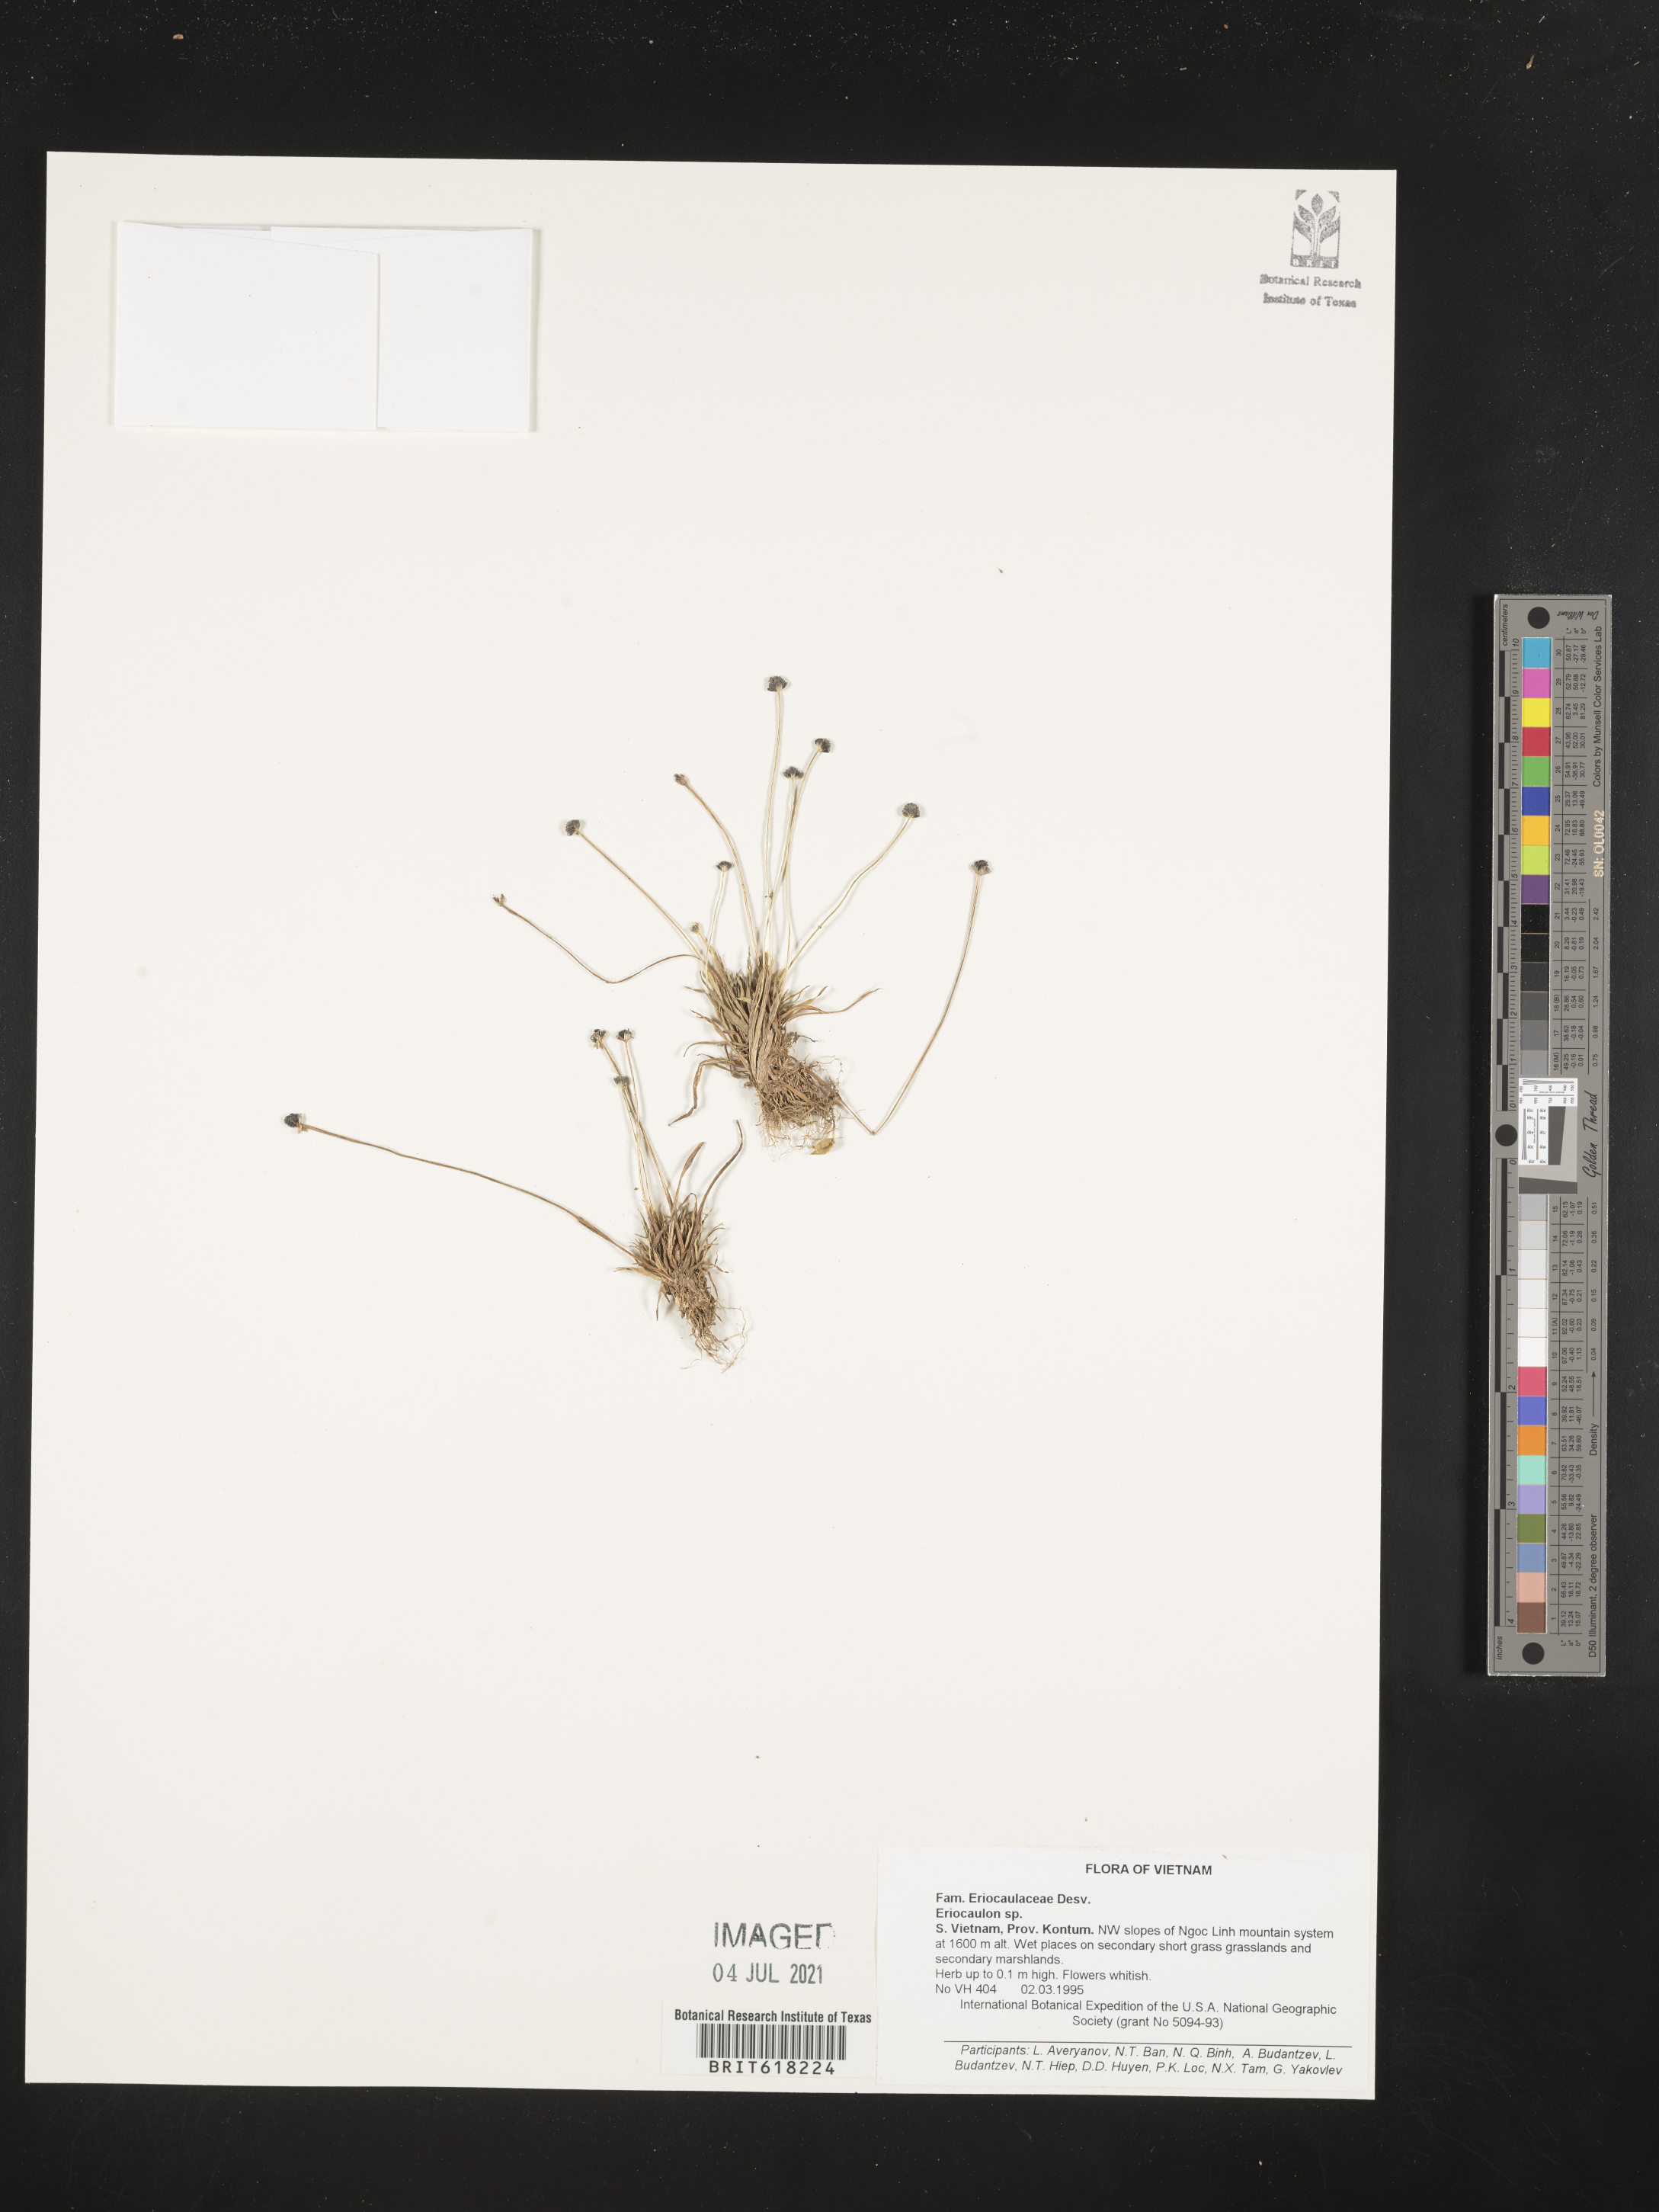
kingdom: Plantae
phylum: Tracheophyta
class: Liliopsida
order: Poales
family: Eriocaulaceae
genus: Eriocaulon
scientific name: Eriocaulon
